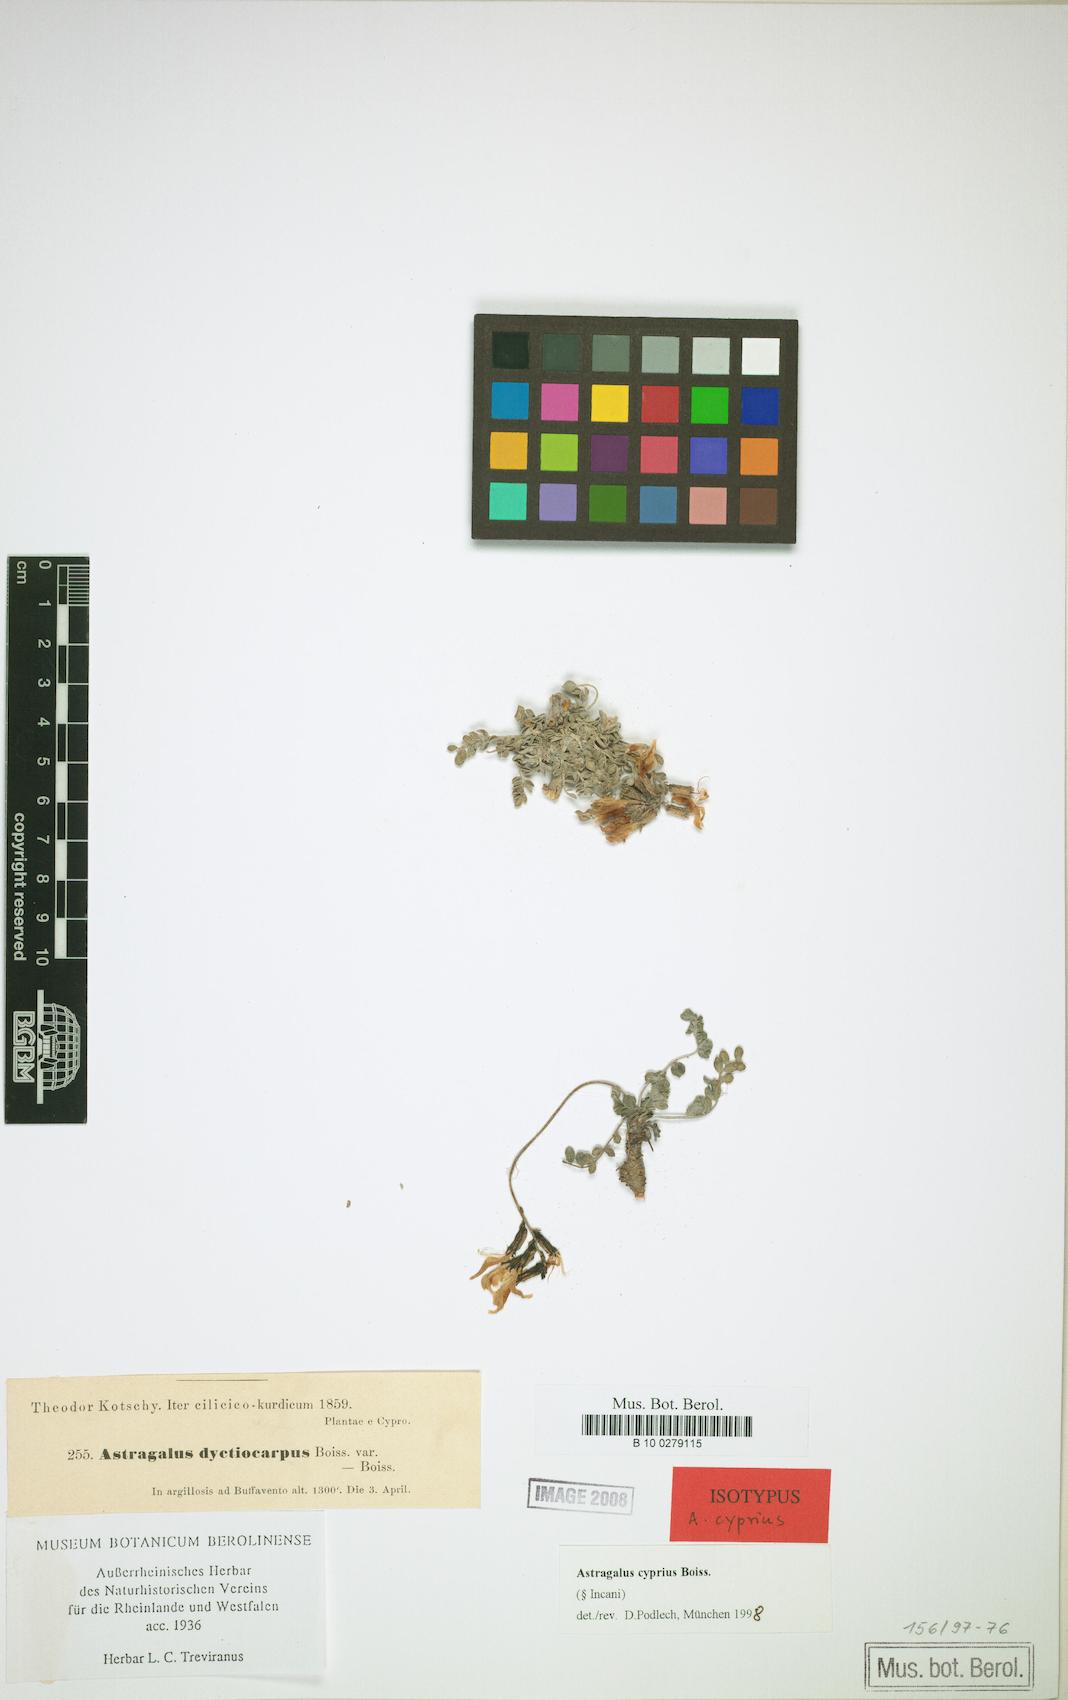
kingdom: Plantae
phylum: Tracheophyta
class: Magnoliopsida
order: Fabales
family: Fabaceae
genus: Astragalus
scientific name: Astragalus cyprius
